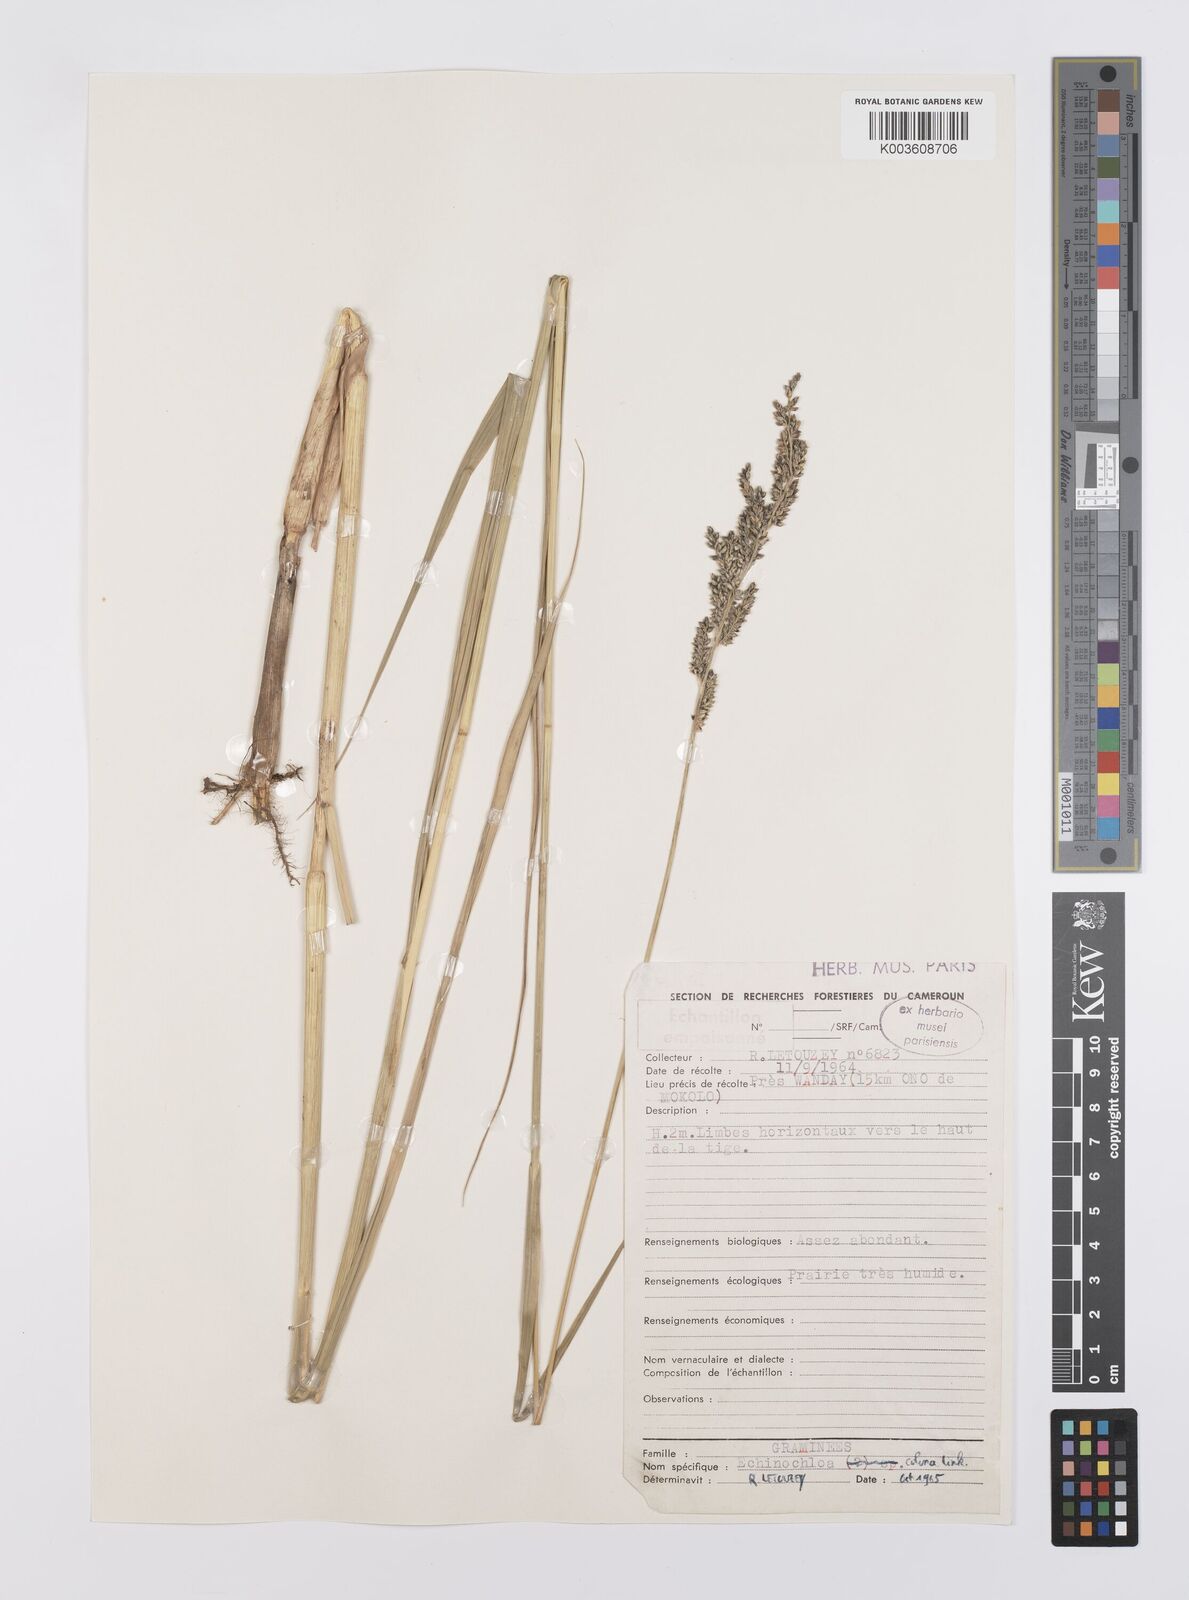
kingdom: Plantae
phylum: Tracheophyta
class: Liliopsida
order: Poales
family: Poaceae
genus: Echinochloa
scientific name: Echinochloa pyramidalis
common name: Antelope grass
